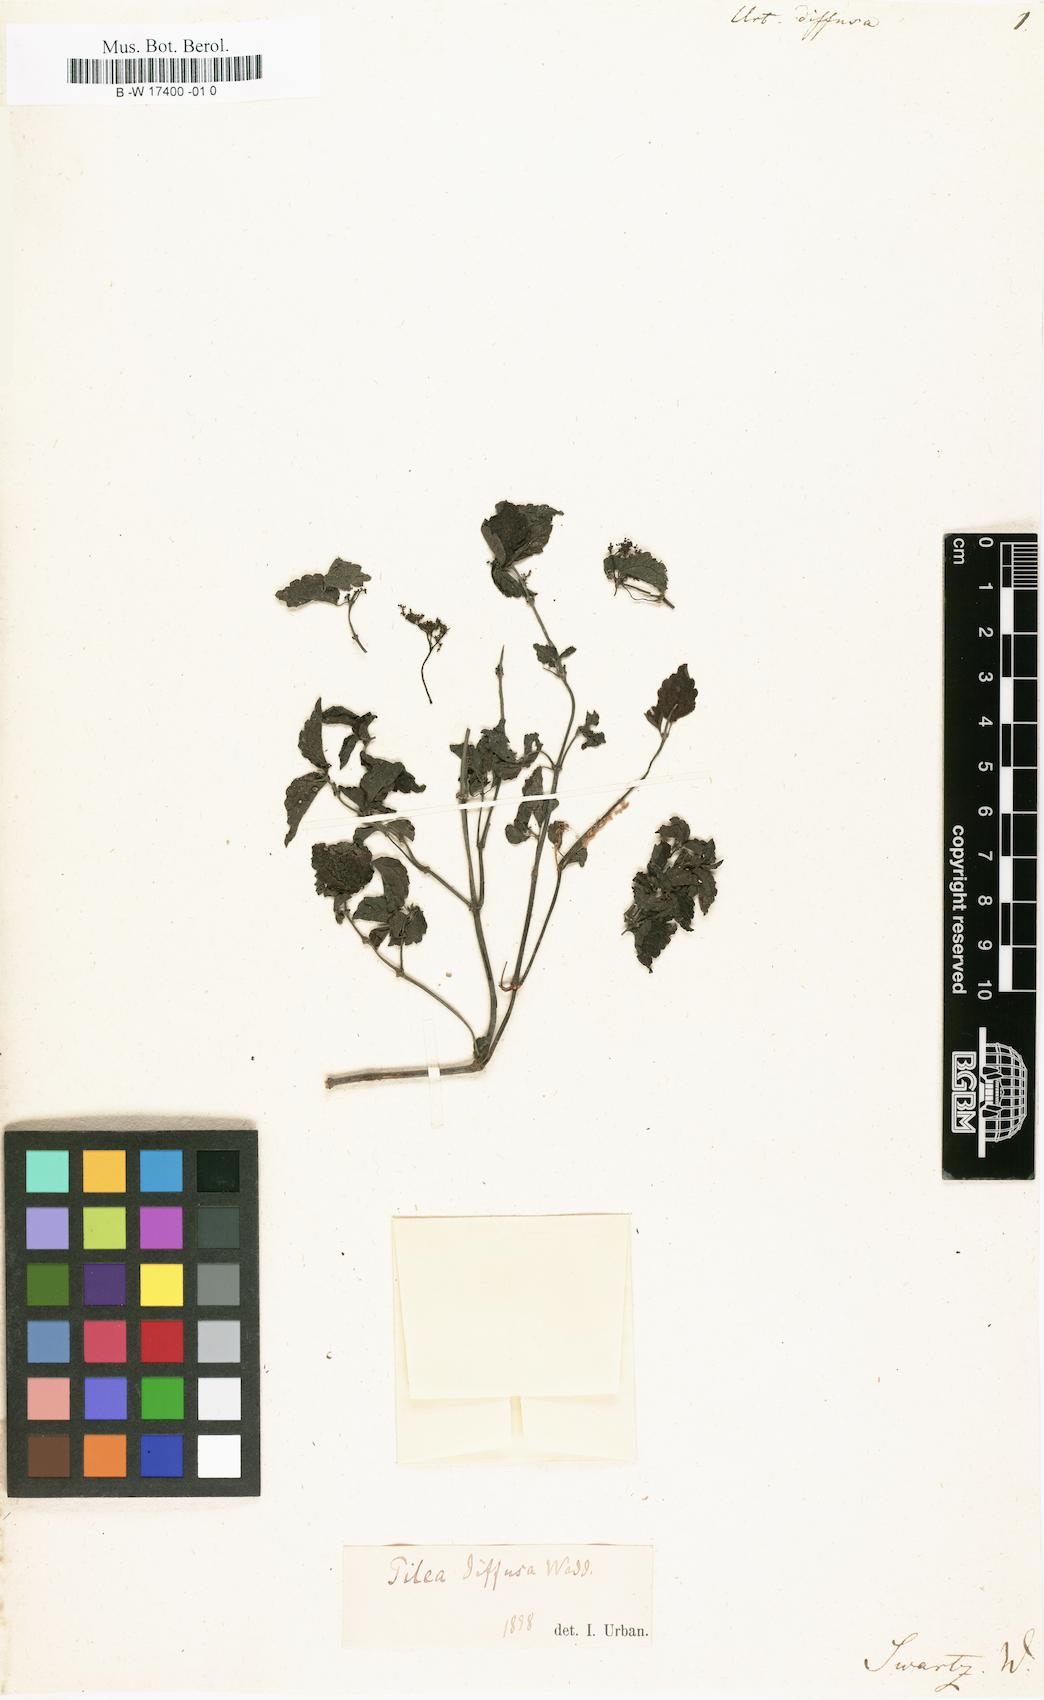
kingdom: Plantae
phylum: Tracheophyta
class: Magnoliopsida
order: Rosales
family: Urticaceae
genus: Pilea
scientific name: Pilea diffusa
